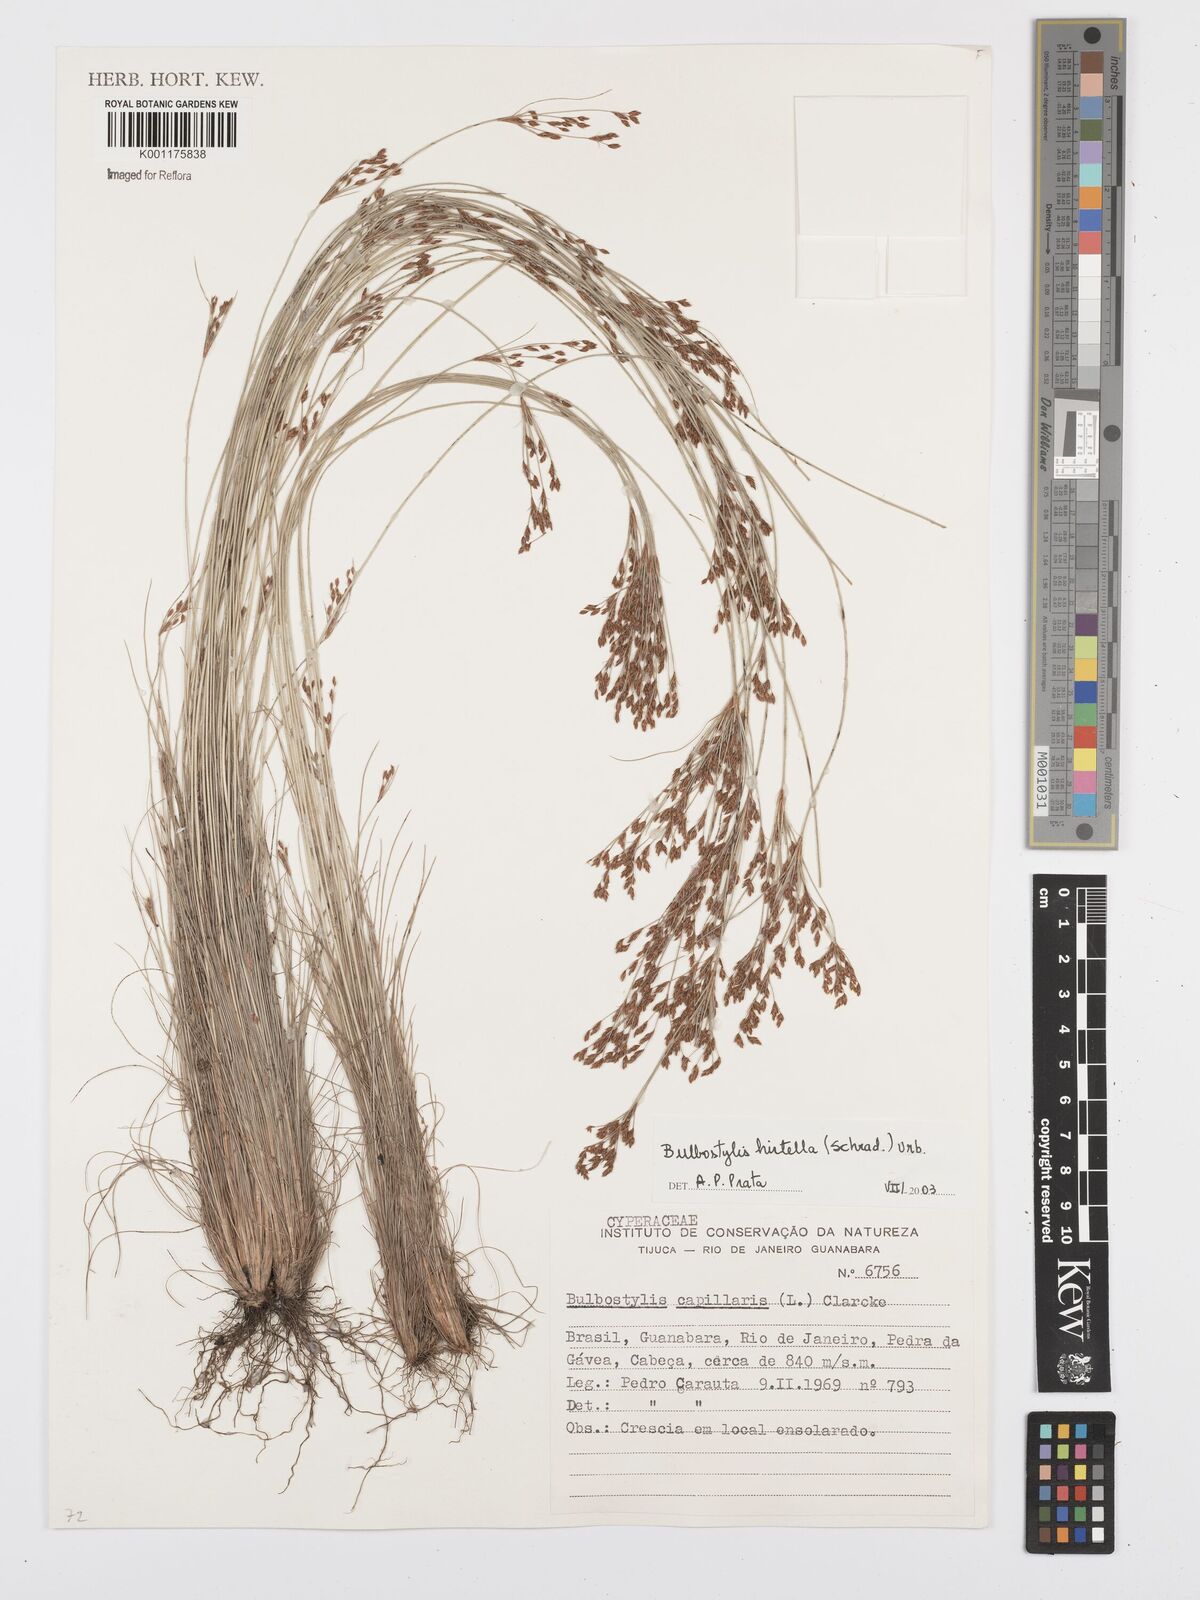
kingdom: Plantae
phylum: Tracheophyta
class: Liliopsida
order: Poales
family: Cyperaceae
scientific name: Cyperaceae
